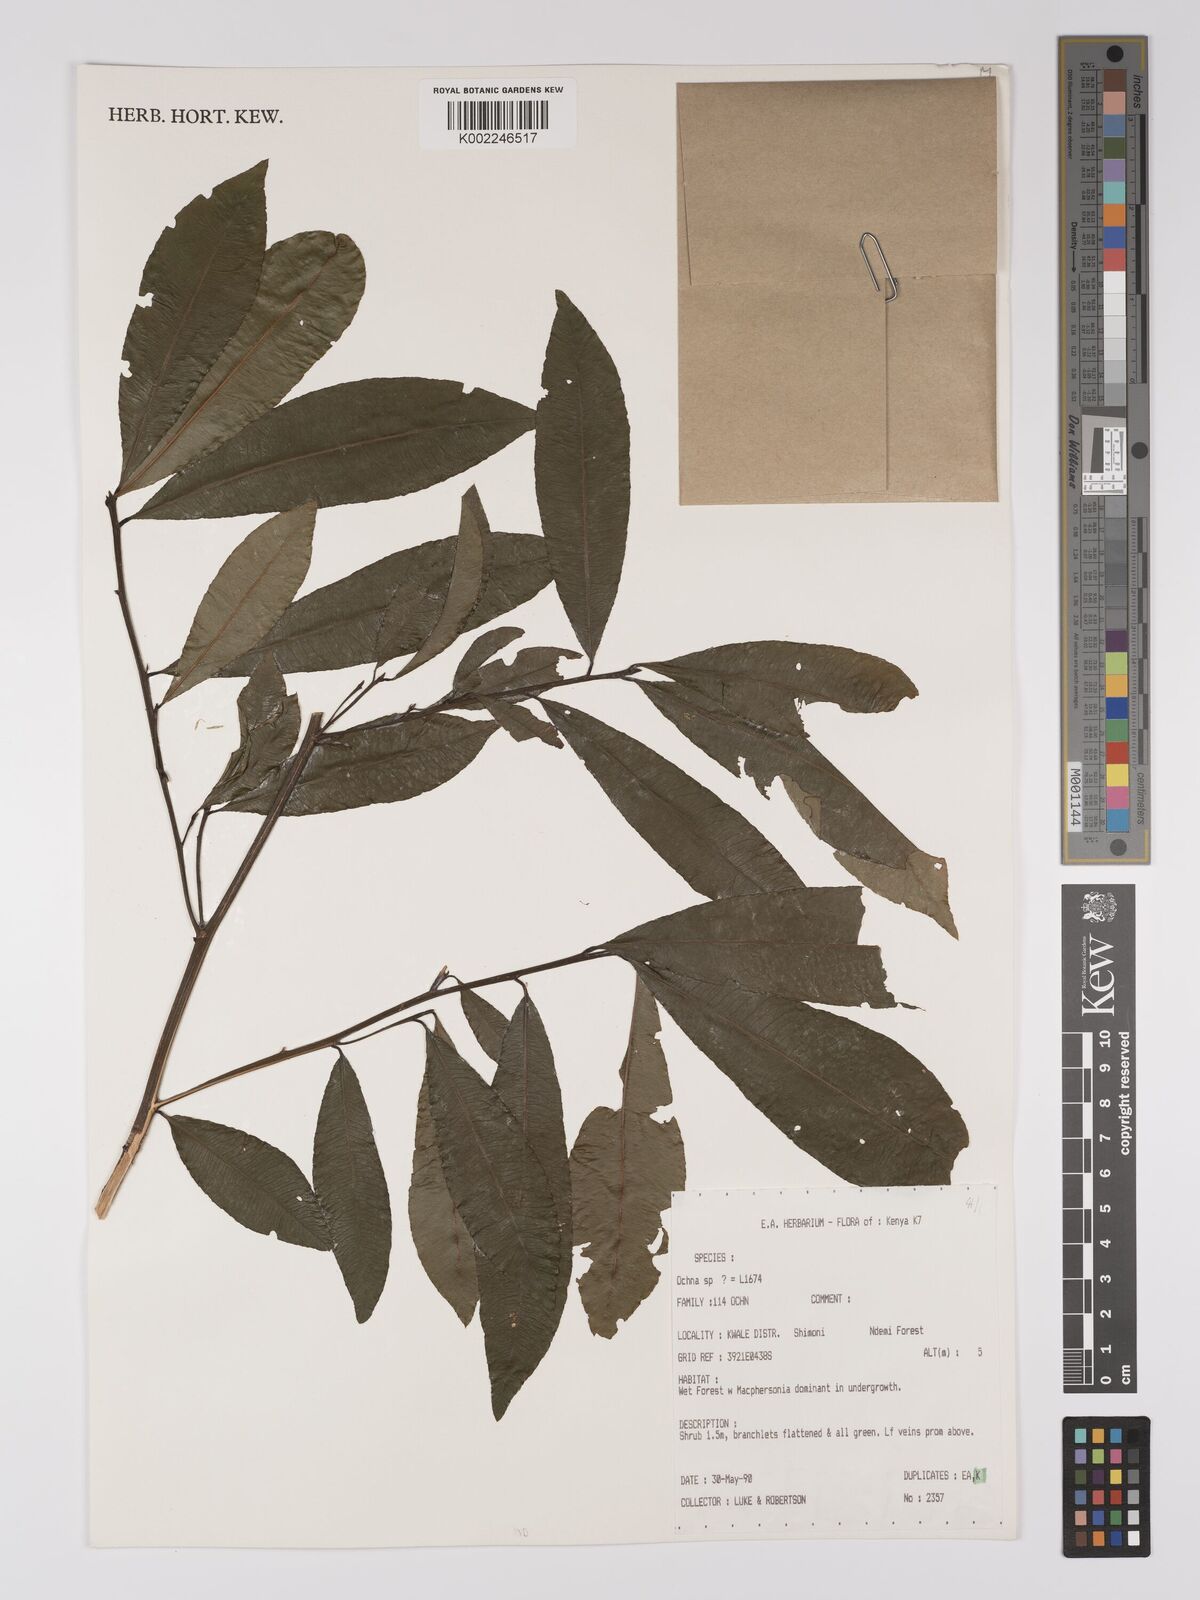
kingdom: Plantae
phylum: Tracheophyta
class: Magnoliopsida
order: Malpighiales
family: Ochnaceae
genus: Ochna
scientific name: Ochna apetala
